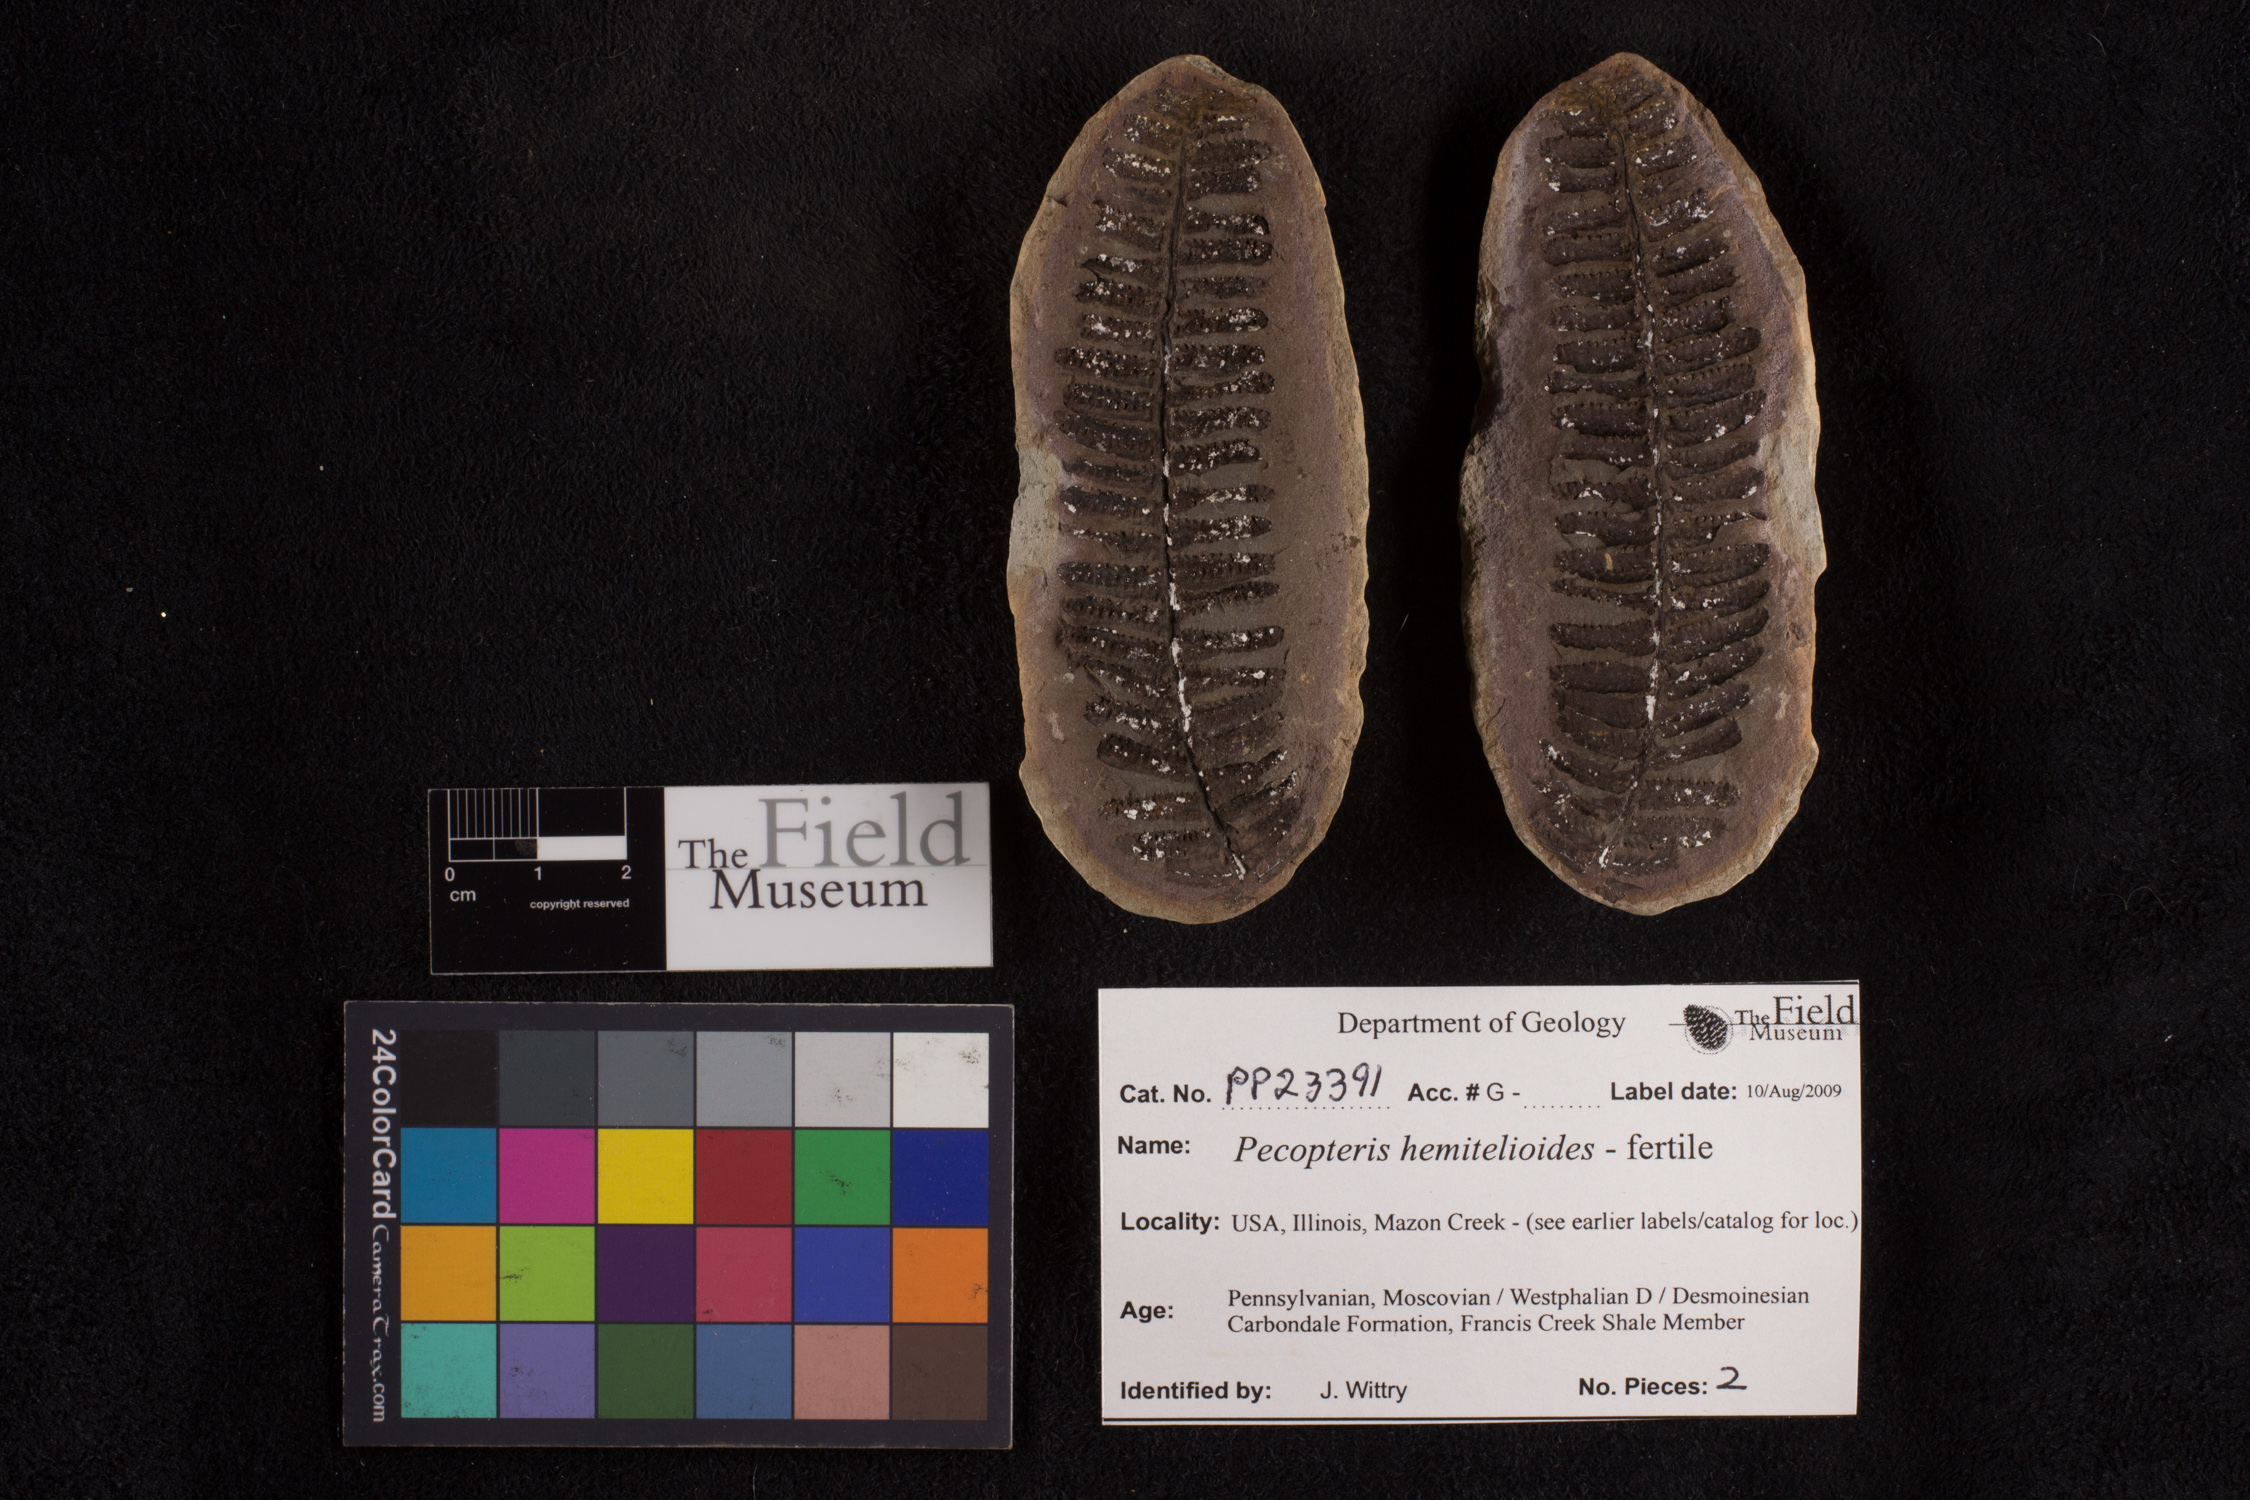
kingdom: Plantae
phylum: Tracheophyta
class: Polypodiopsida
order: Marattiales
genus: Cyathocarpus
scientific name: Cyathocarpus
